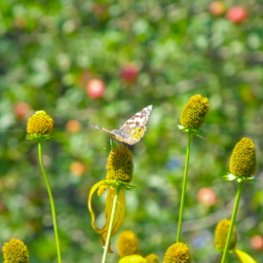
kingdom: Animalia
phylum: Arthropoda
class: Insecta
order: Lepidoptera
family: Nymphalidae
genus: Vanessa
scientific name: Vanessa cardui
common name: Painted Lady
